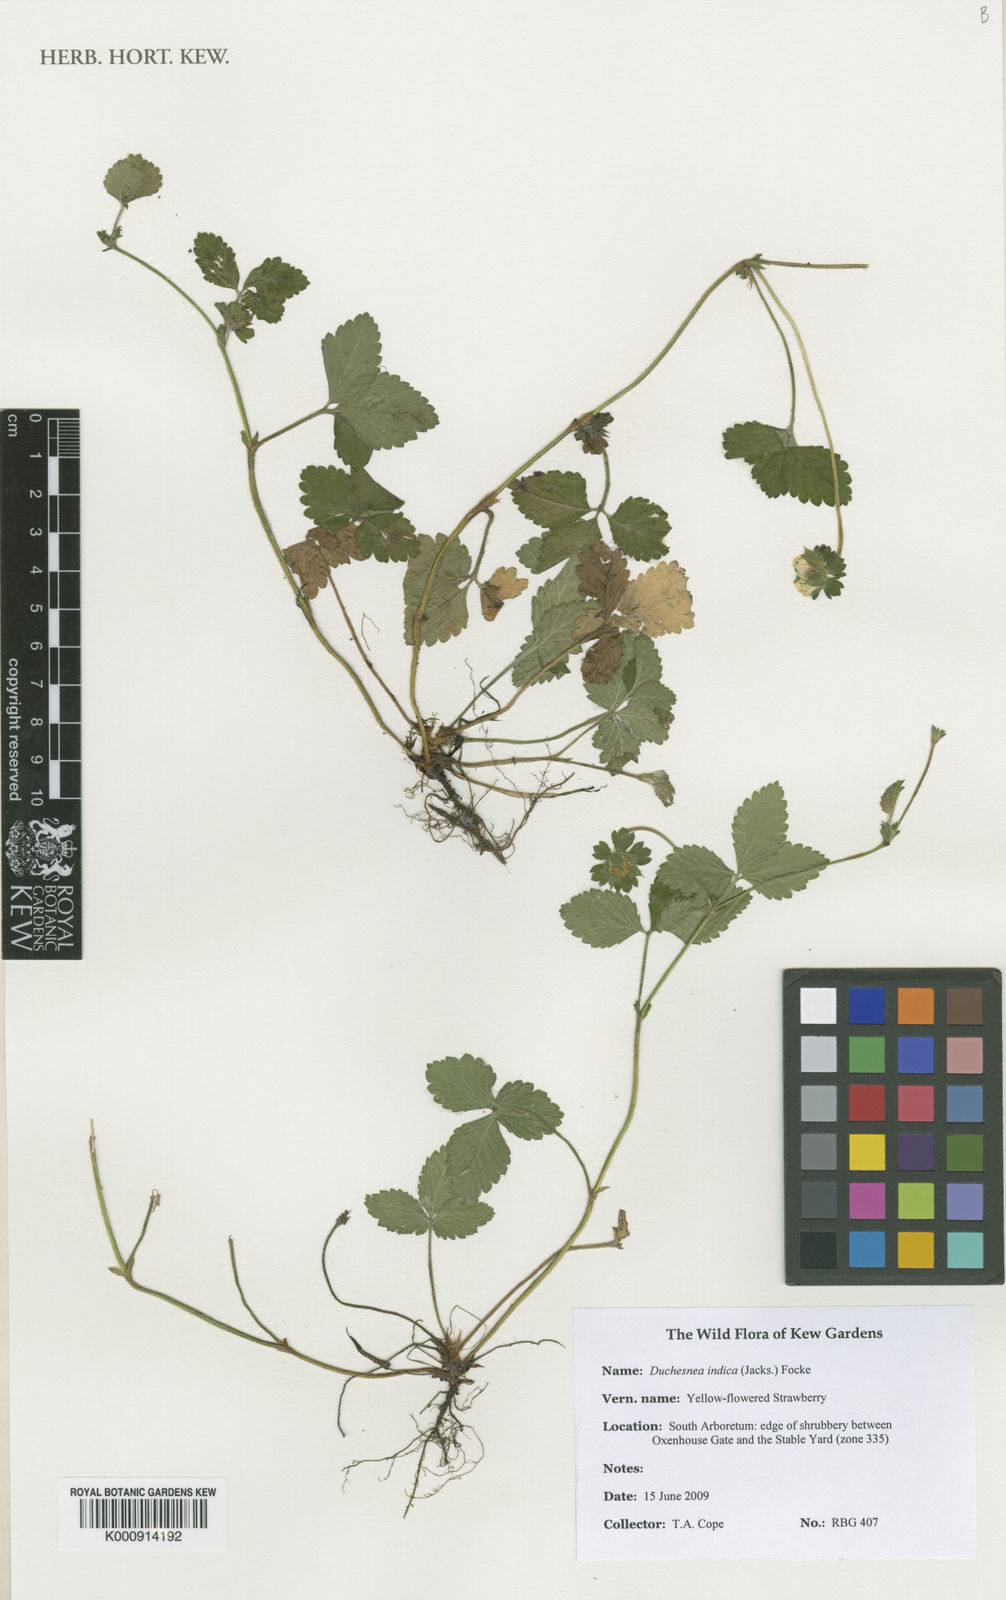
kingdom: Plantae
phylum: Tracheophyta
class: Magnoliopsida
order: Rosales
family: Rosaceae
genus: Duchesnea
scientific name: Duchesnea
